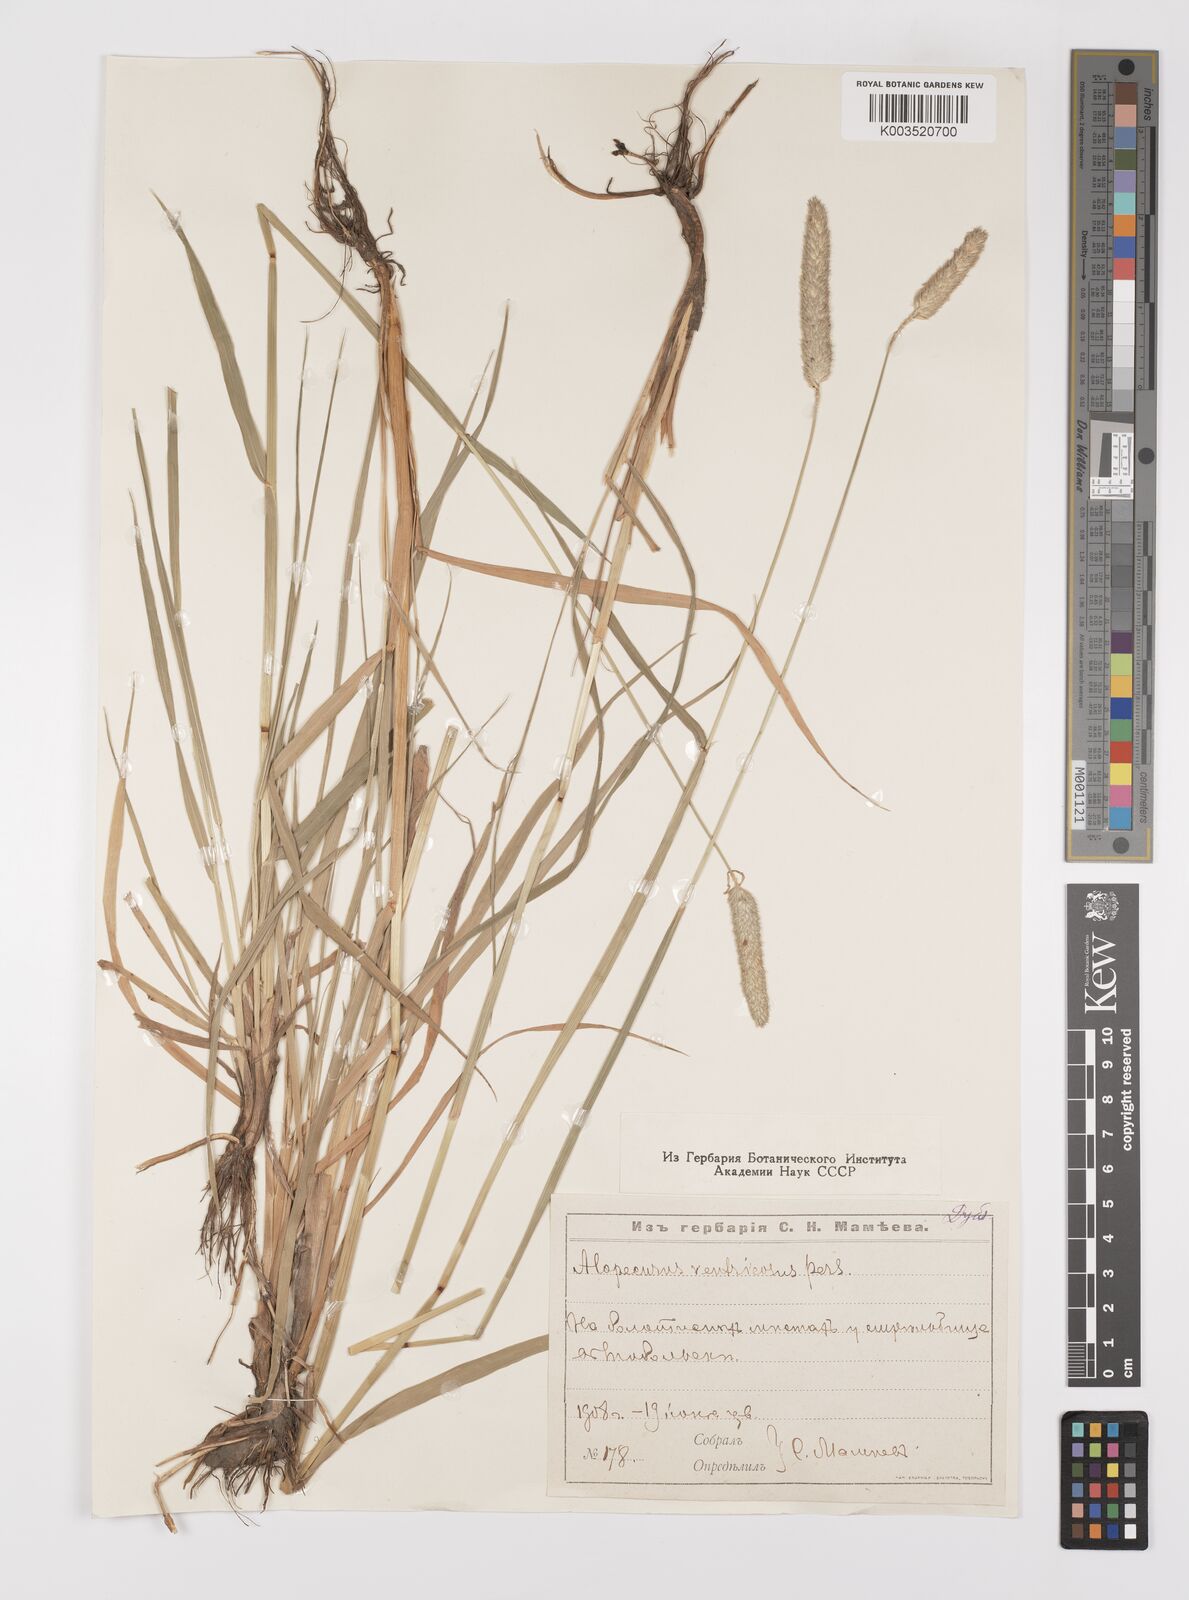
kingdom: Plantae
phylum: Tracheophyta
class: Liliopsida
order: Poales
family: Poaceae
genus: Alopecurus
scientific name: Alopecurus arundinaceus
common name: Creeping meadow foxtail
